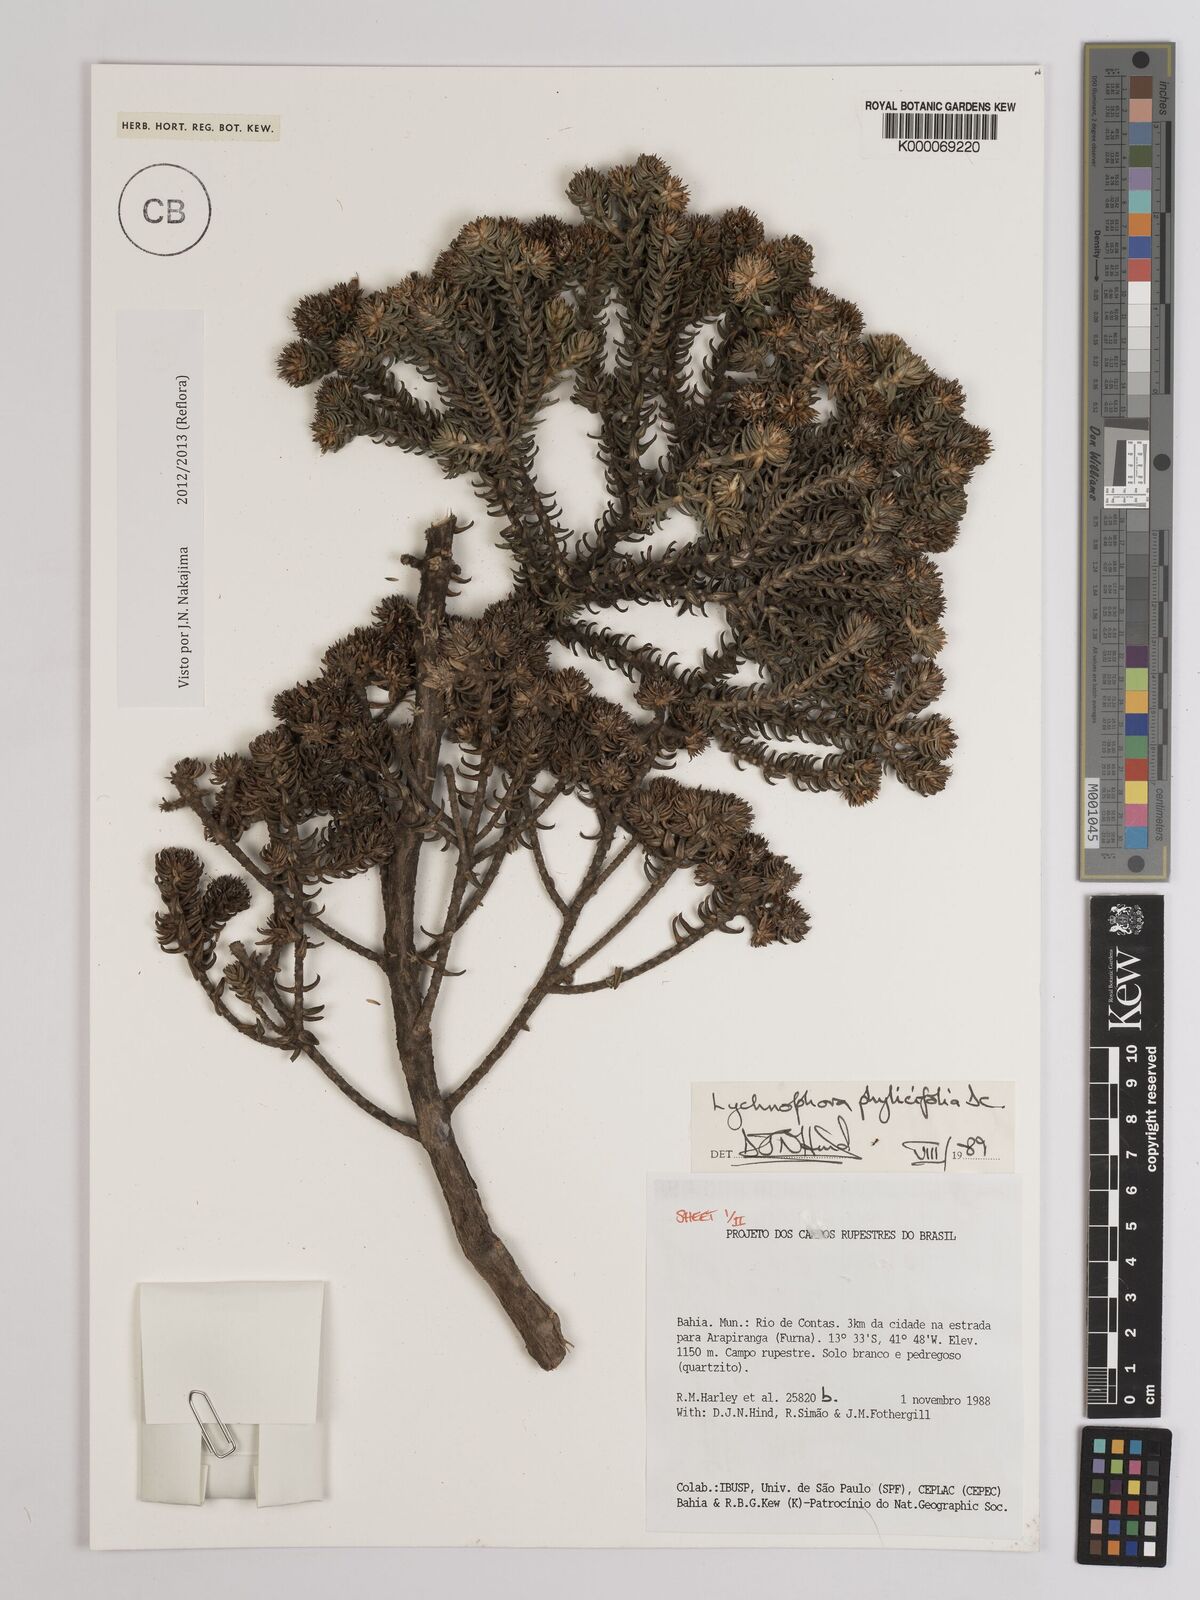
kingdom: Plantae
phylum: Tracheophyta
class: Magnoliopsida
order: Asterales
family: Asteraceae
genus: Lychnophora
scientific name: Lychnophora phylicifolia
